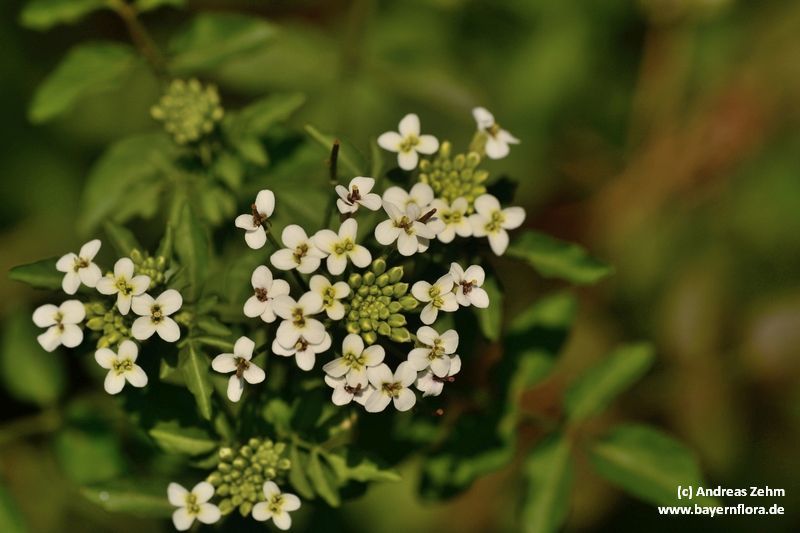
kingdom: Plantae
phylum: Tracheophyta
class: Magnoliopsida
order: Brassicales
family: Brassicaceae
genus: Nasturtium
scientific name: Nasturtium officinale
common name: Watercress
